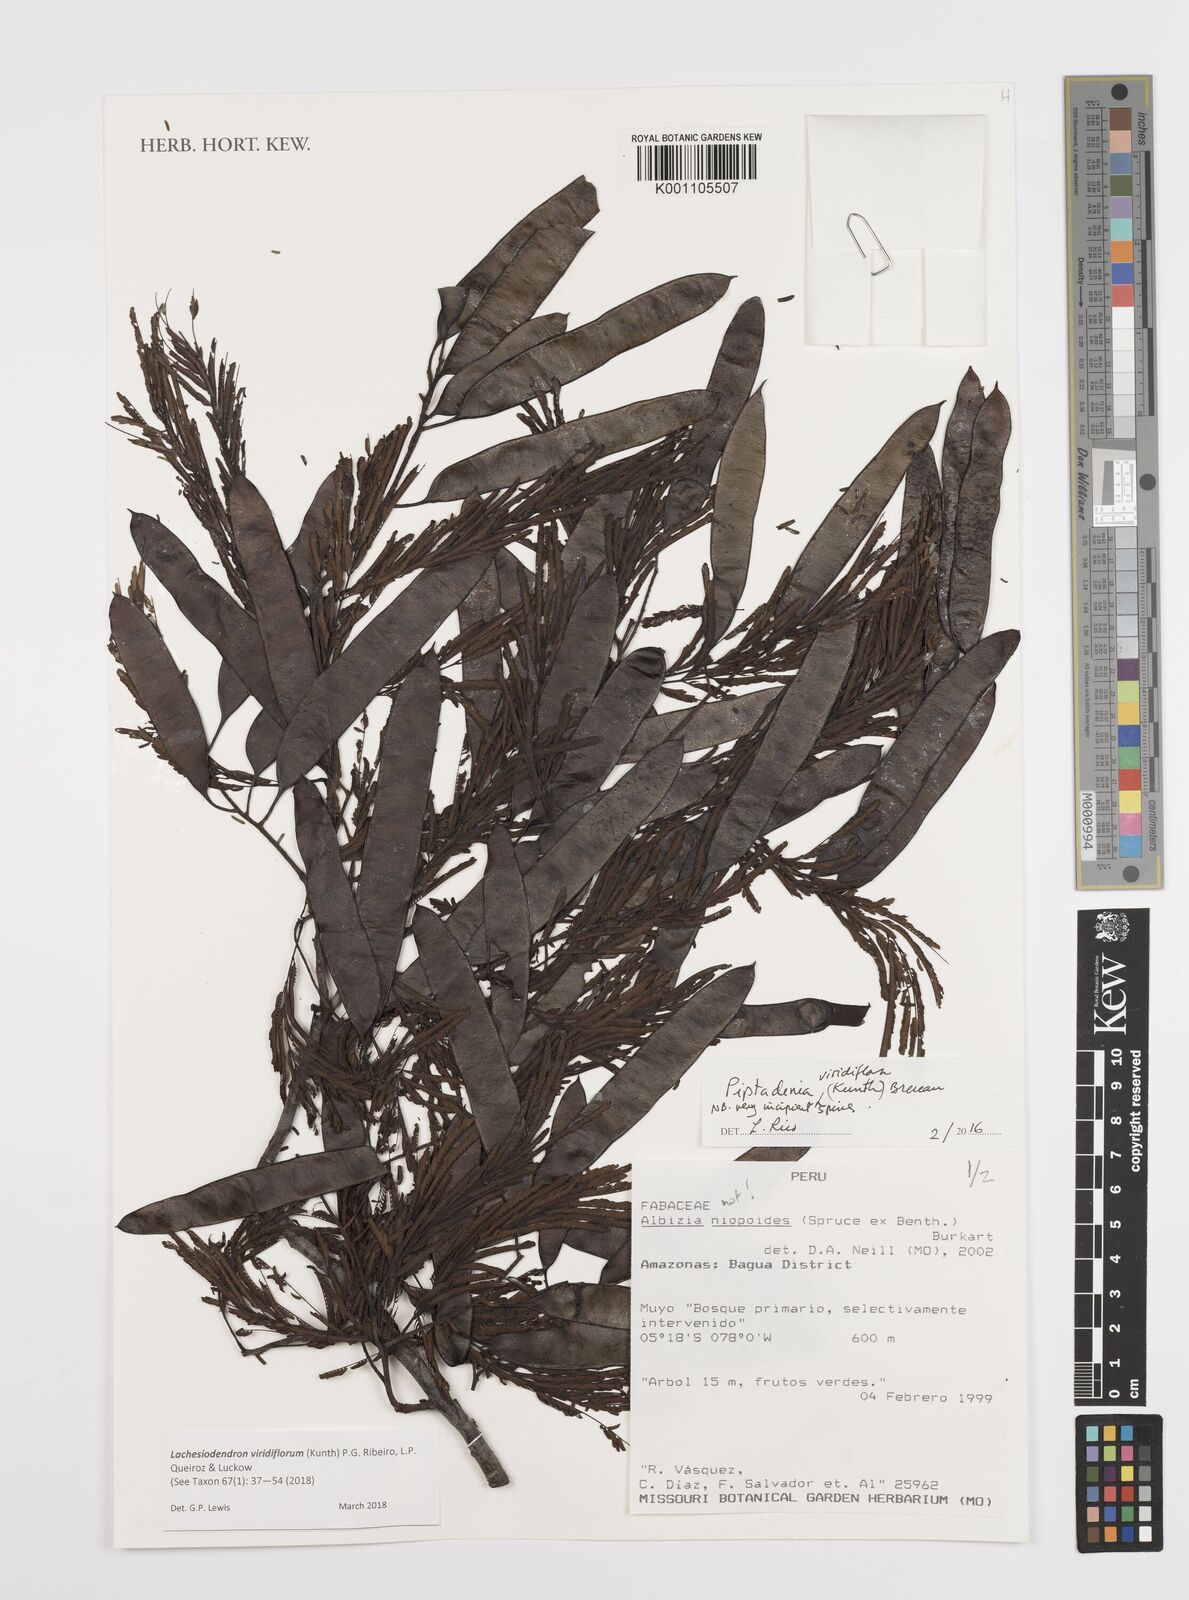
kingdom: Plantae
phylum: Tracheophyta
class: Magnoliopsida
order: Fabales
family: Fabaceae
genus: Lachesiodendron
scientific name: Lachesiodendron viridiflorum
